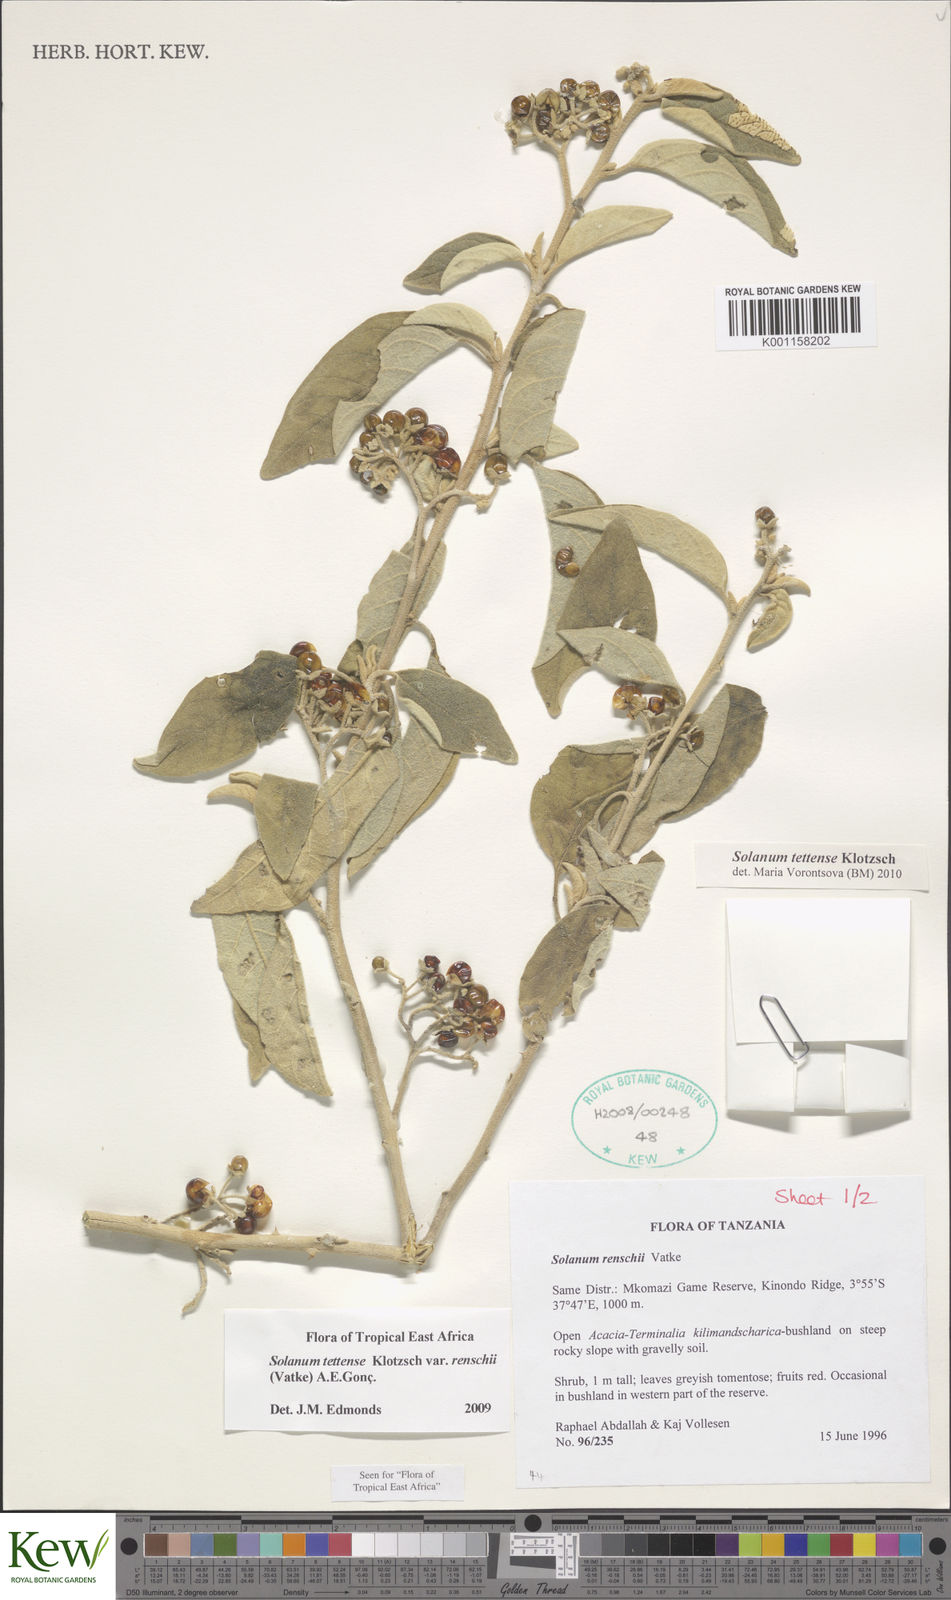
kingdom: Plantae
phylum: Tracheophyta
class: Magnoliopsida
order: Solanales
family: Solanaceae
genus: Solanum
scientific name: Solanum tettense
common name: Mozambique bitter apple
